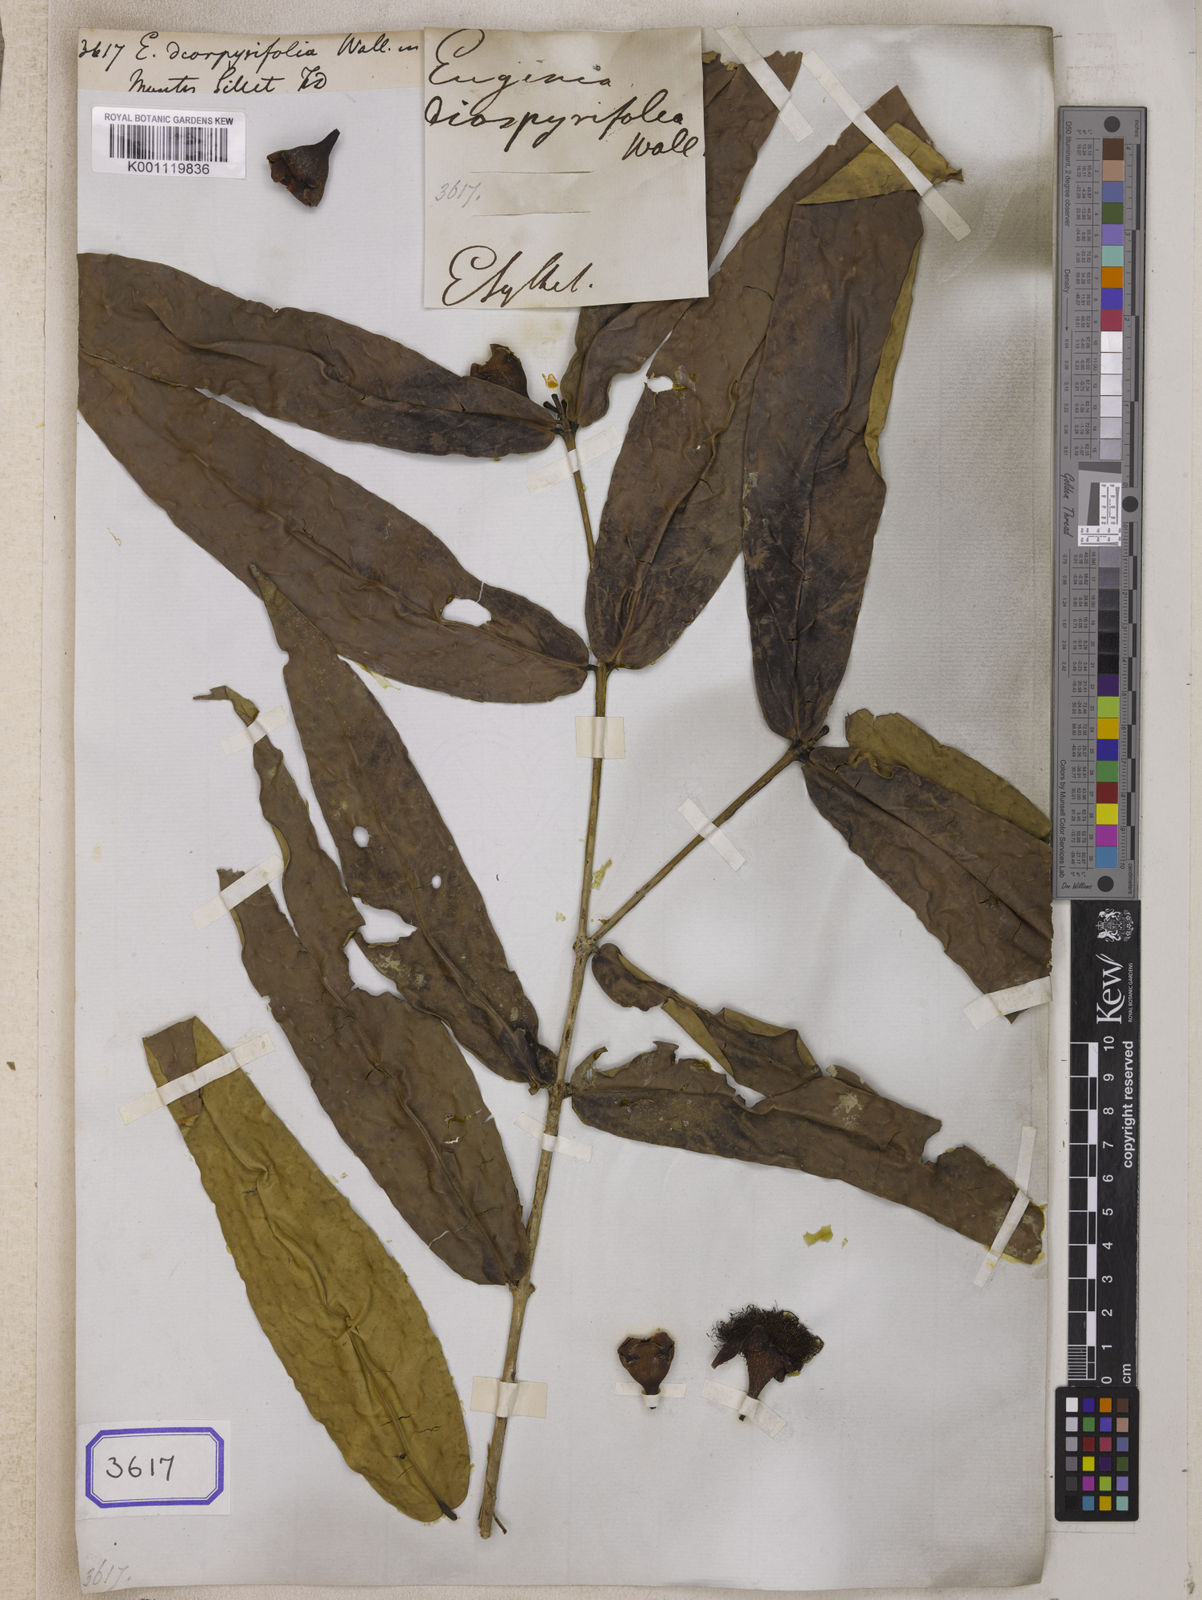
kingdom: Plantae
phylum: Tracheophyta
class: Magnoliopsida
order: Myrtales
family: Myrtaceae
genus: Eugenia
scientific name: Eugenia
